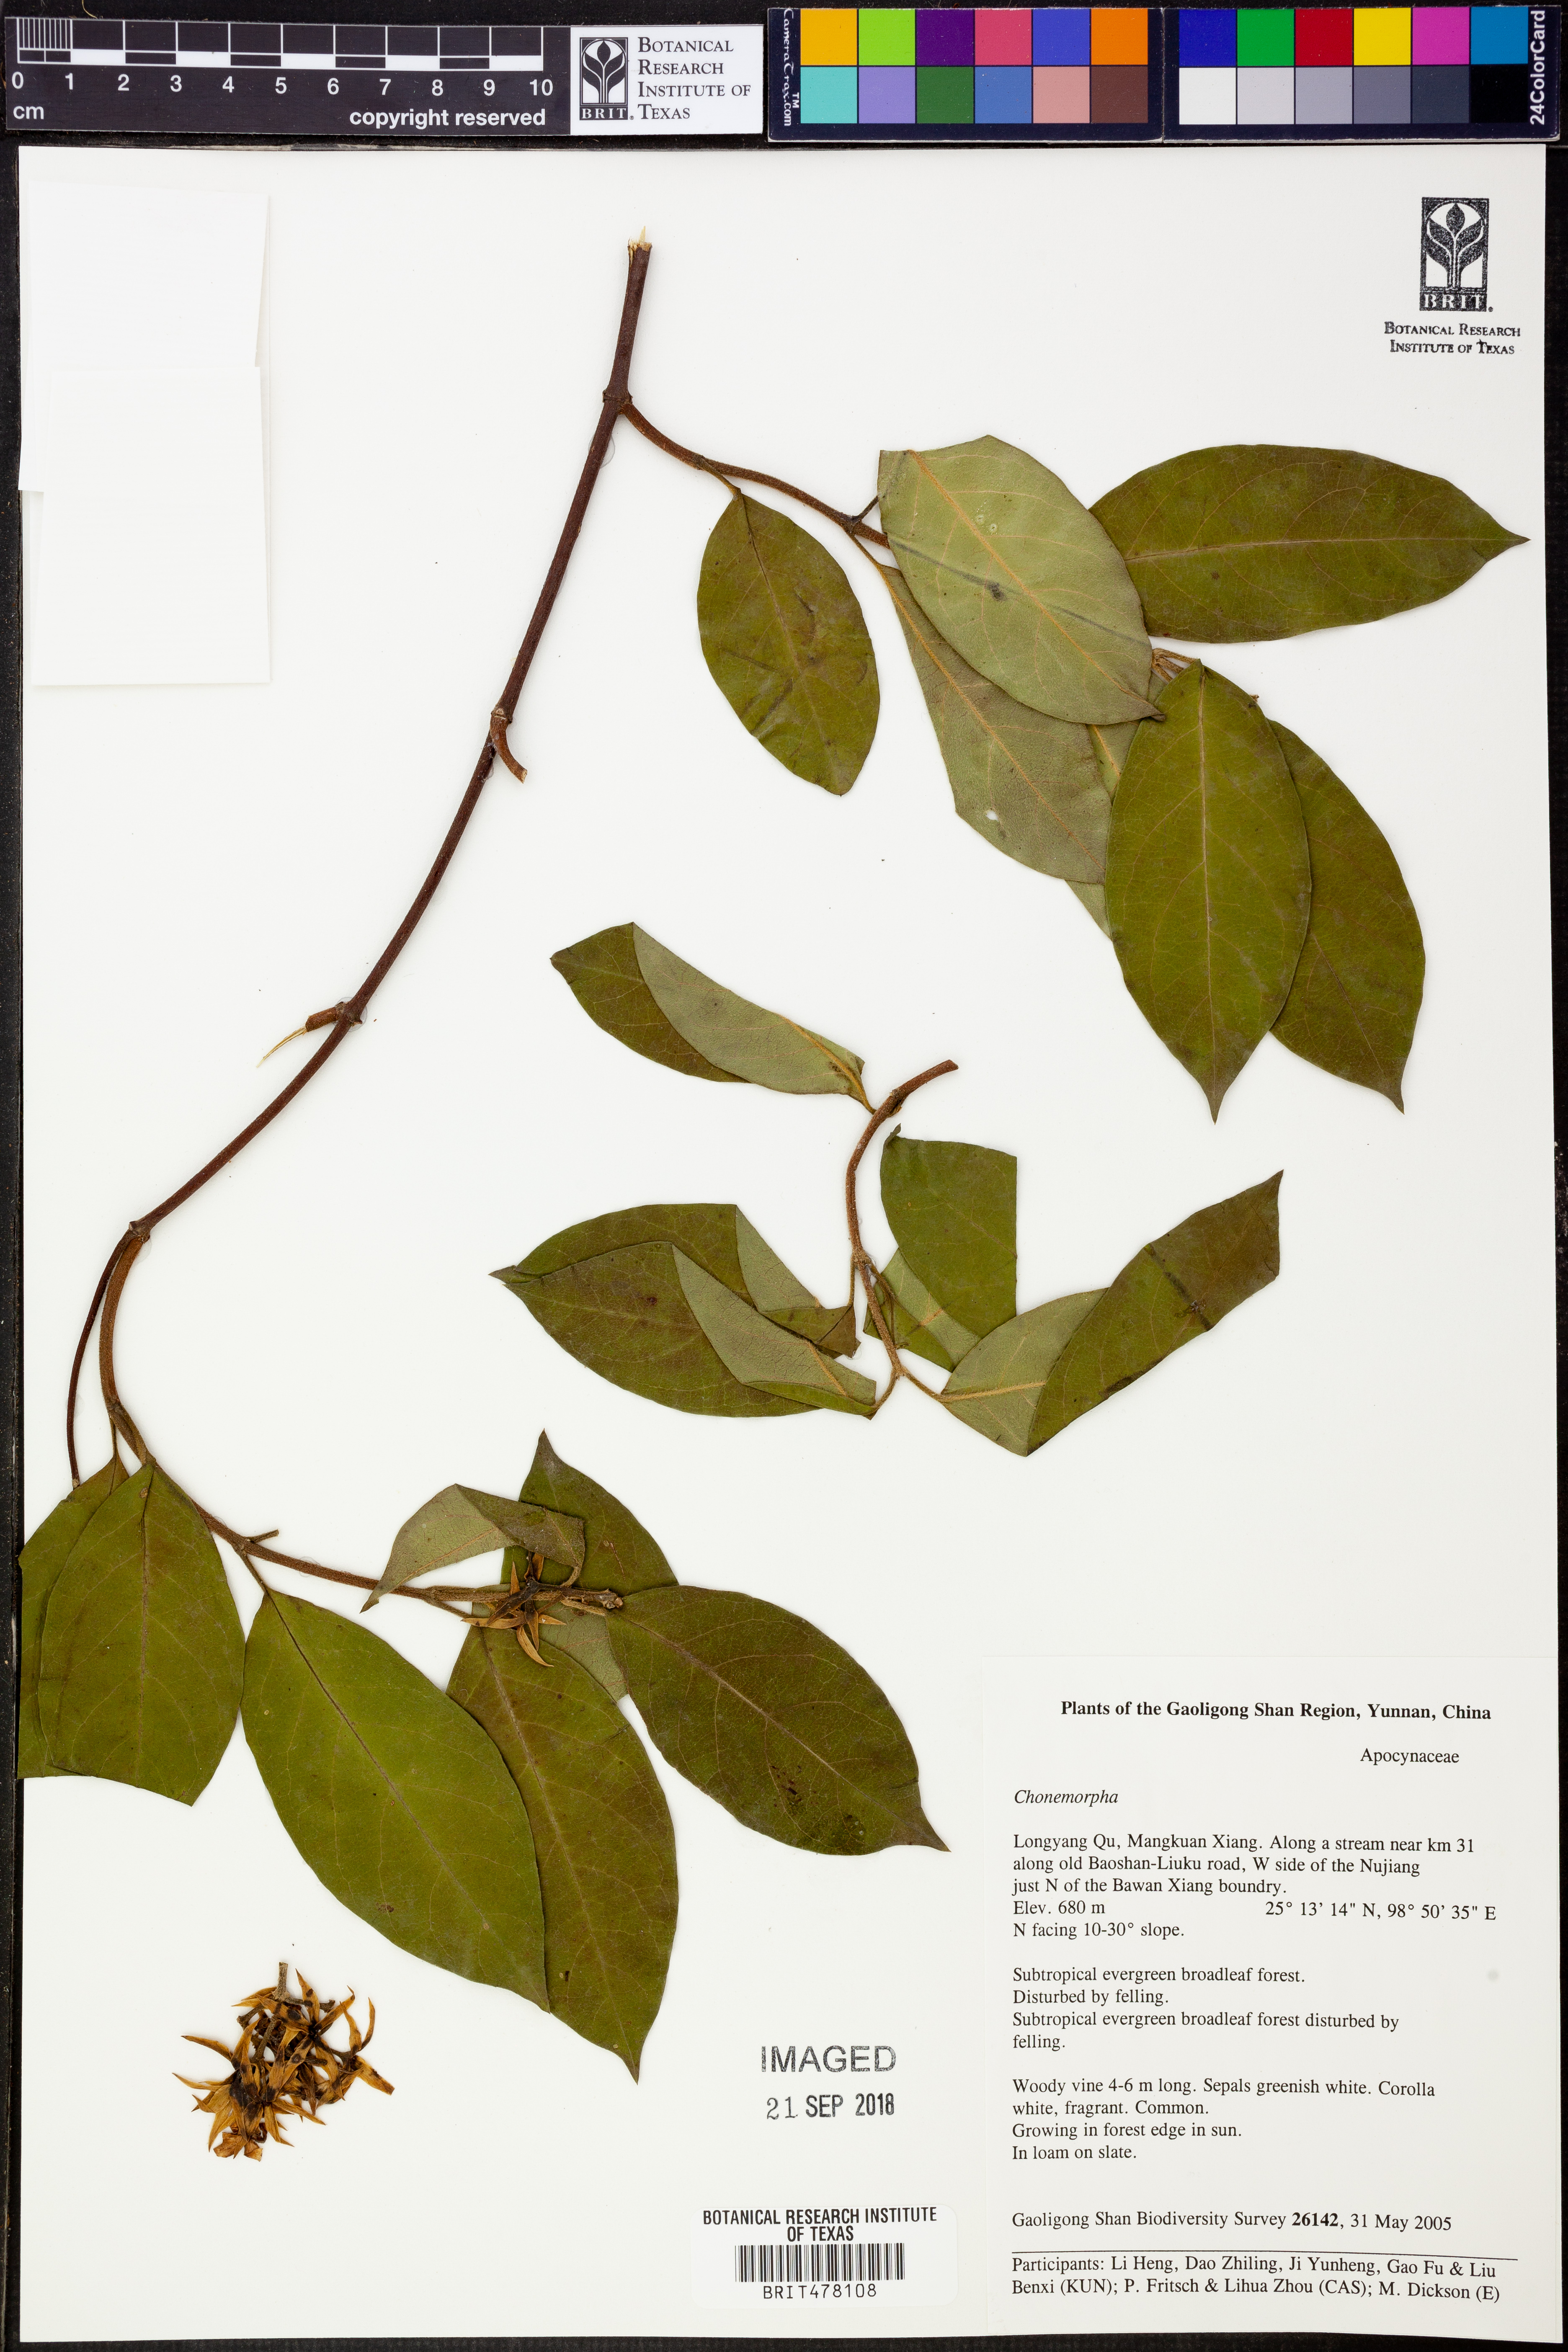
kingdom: Plantae
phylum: Tracheophyta
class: Magnoliopsida
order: Gentianales
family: Apocynaceae
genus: Chonemorpha
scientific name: Chonemorpha
